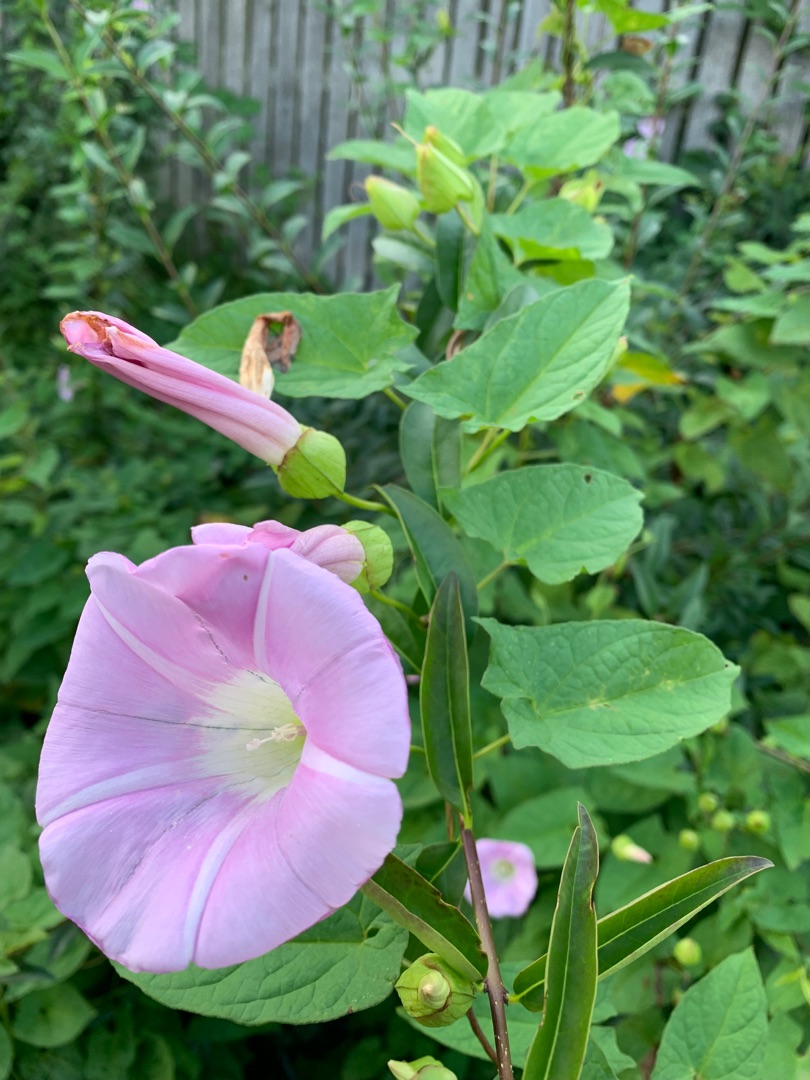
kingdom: Plantae
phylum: Tracheophyta
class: Magnoliopsida
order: Solanales
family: Convolvulaceae
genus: Calystegia
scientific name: Calystegia pulchra
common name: Have-snerle
